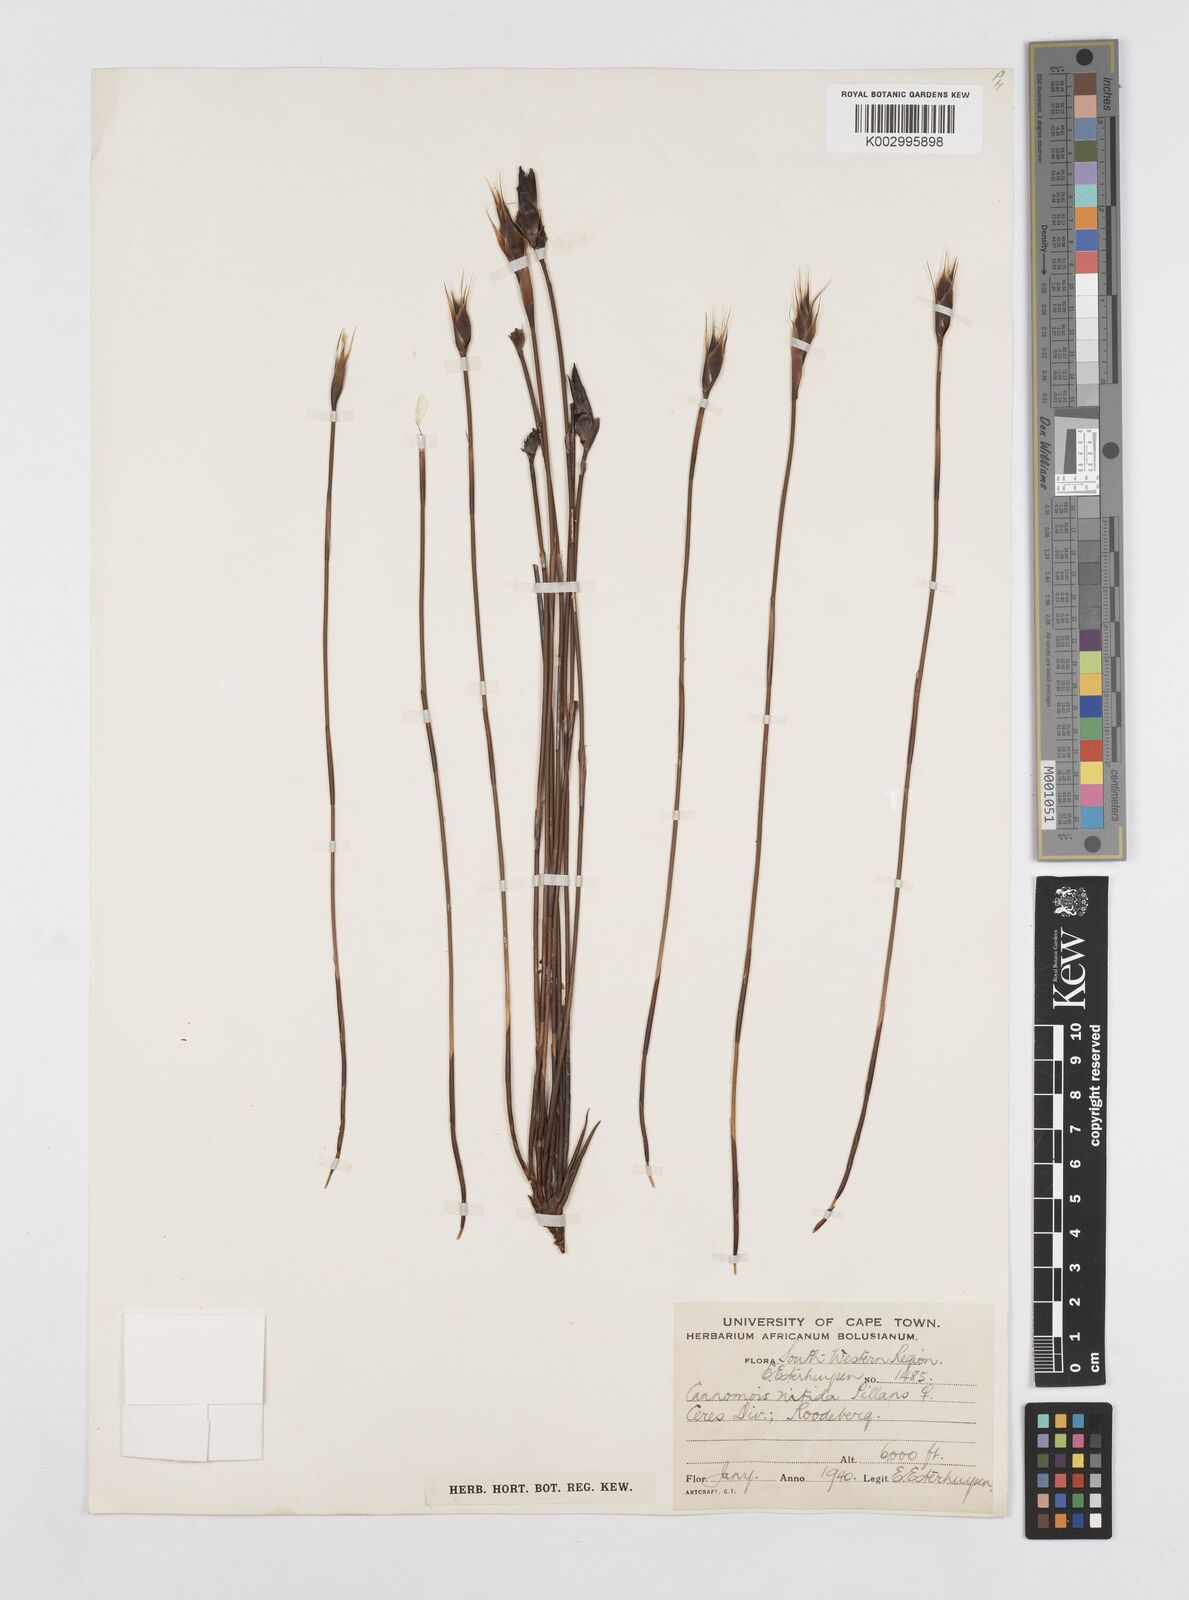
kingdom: Plantae
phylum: Tracheophyta
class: Liliopsida
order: Poales
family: Restionaceae
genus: Cannomois
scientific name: Cannomois nitida
